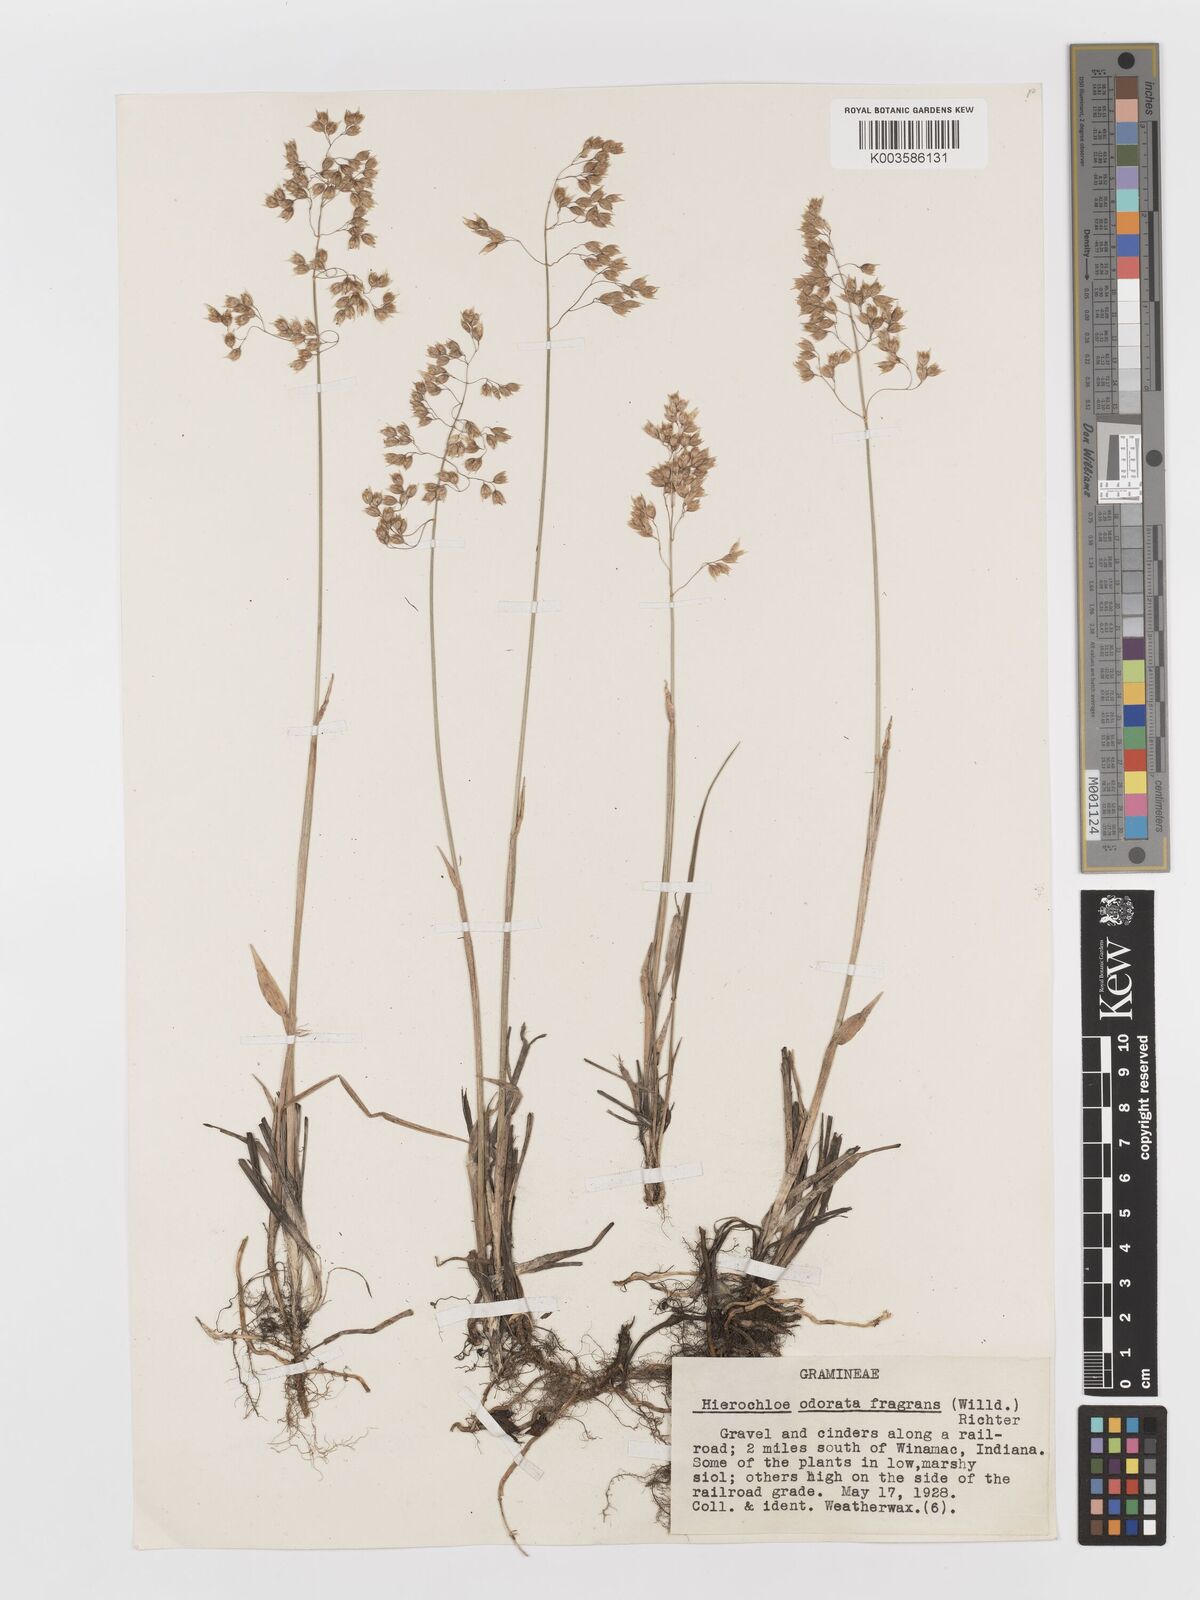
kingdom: Plantae
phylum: Tracheophyta
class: Liliopsida
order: Poales
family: Poaceae
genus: Anthoxanthum
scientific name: Anthoxanthum nitens
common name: Holy grass
